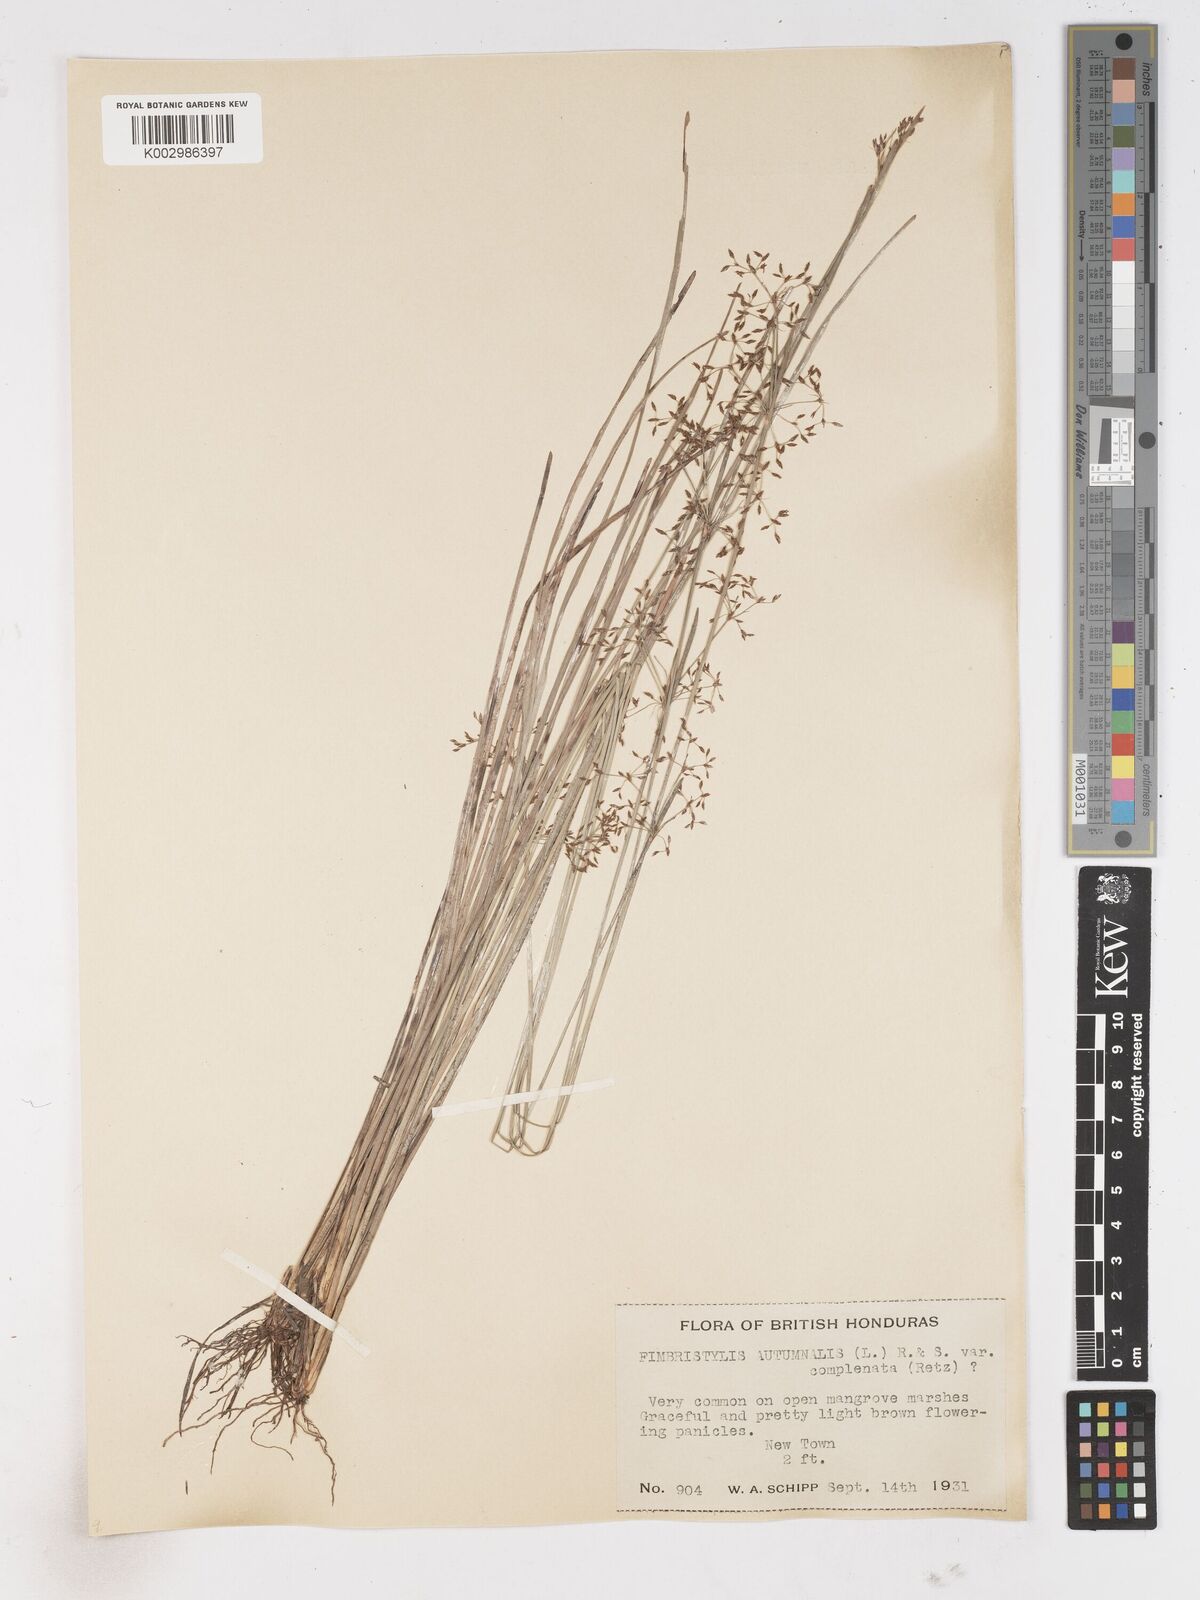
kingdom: Plantae
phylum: Tracheophyta
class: Liliopsida
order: Poales
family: Cyperaceae
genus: Fimbristylis
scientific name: Fimbristylis complanata
